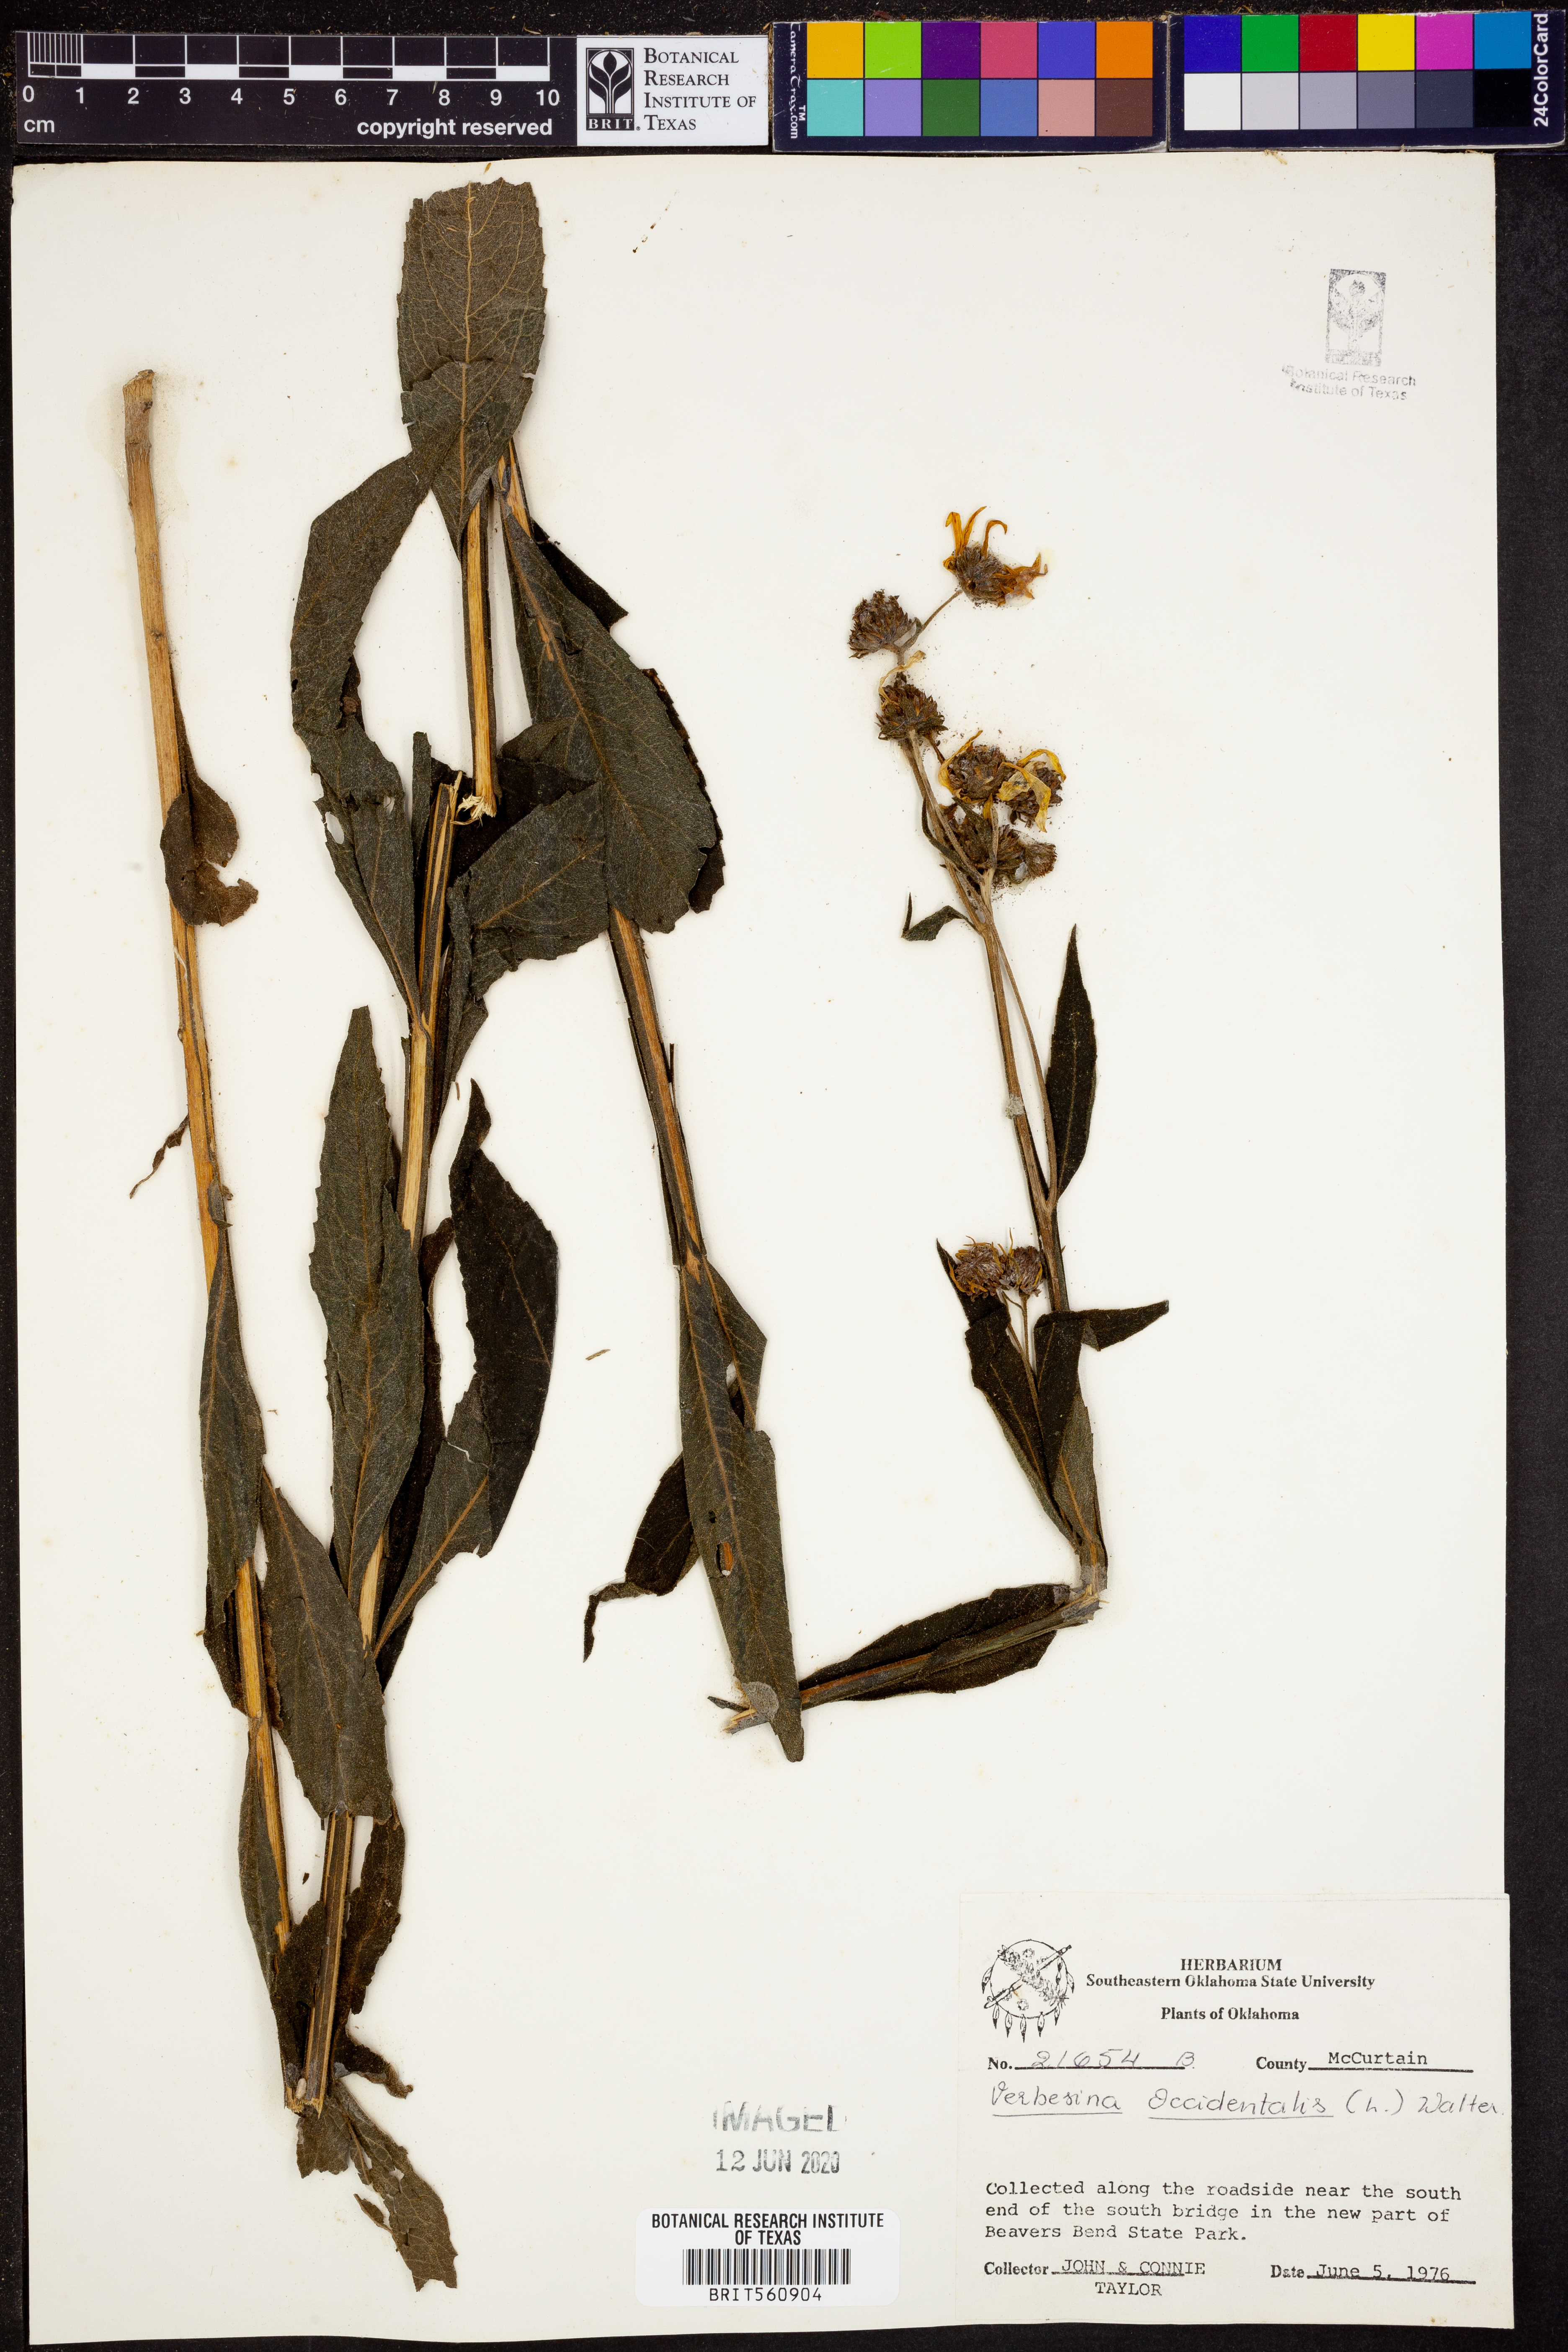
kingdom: Plantae
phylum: Tracheophyta
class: Magnoliopsida
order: Asterales
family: Asteraceae
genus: Verbesina
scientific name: Verbesina occidentalis
